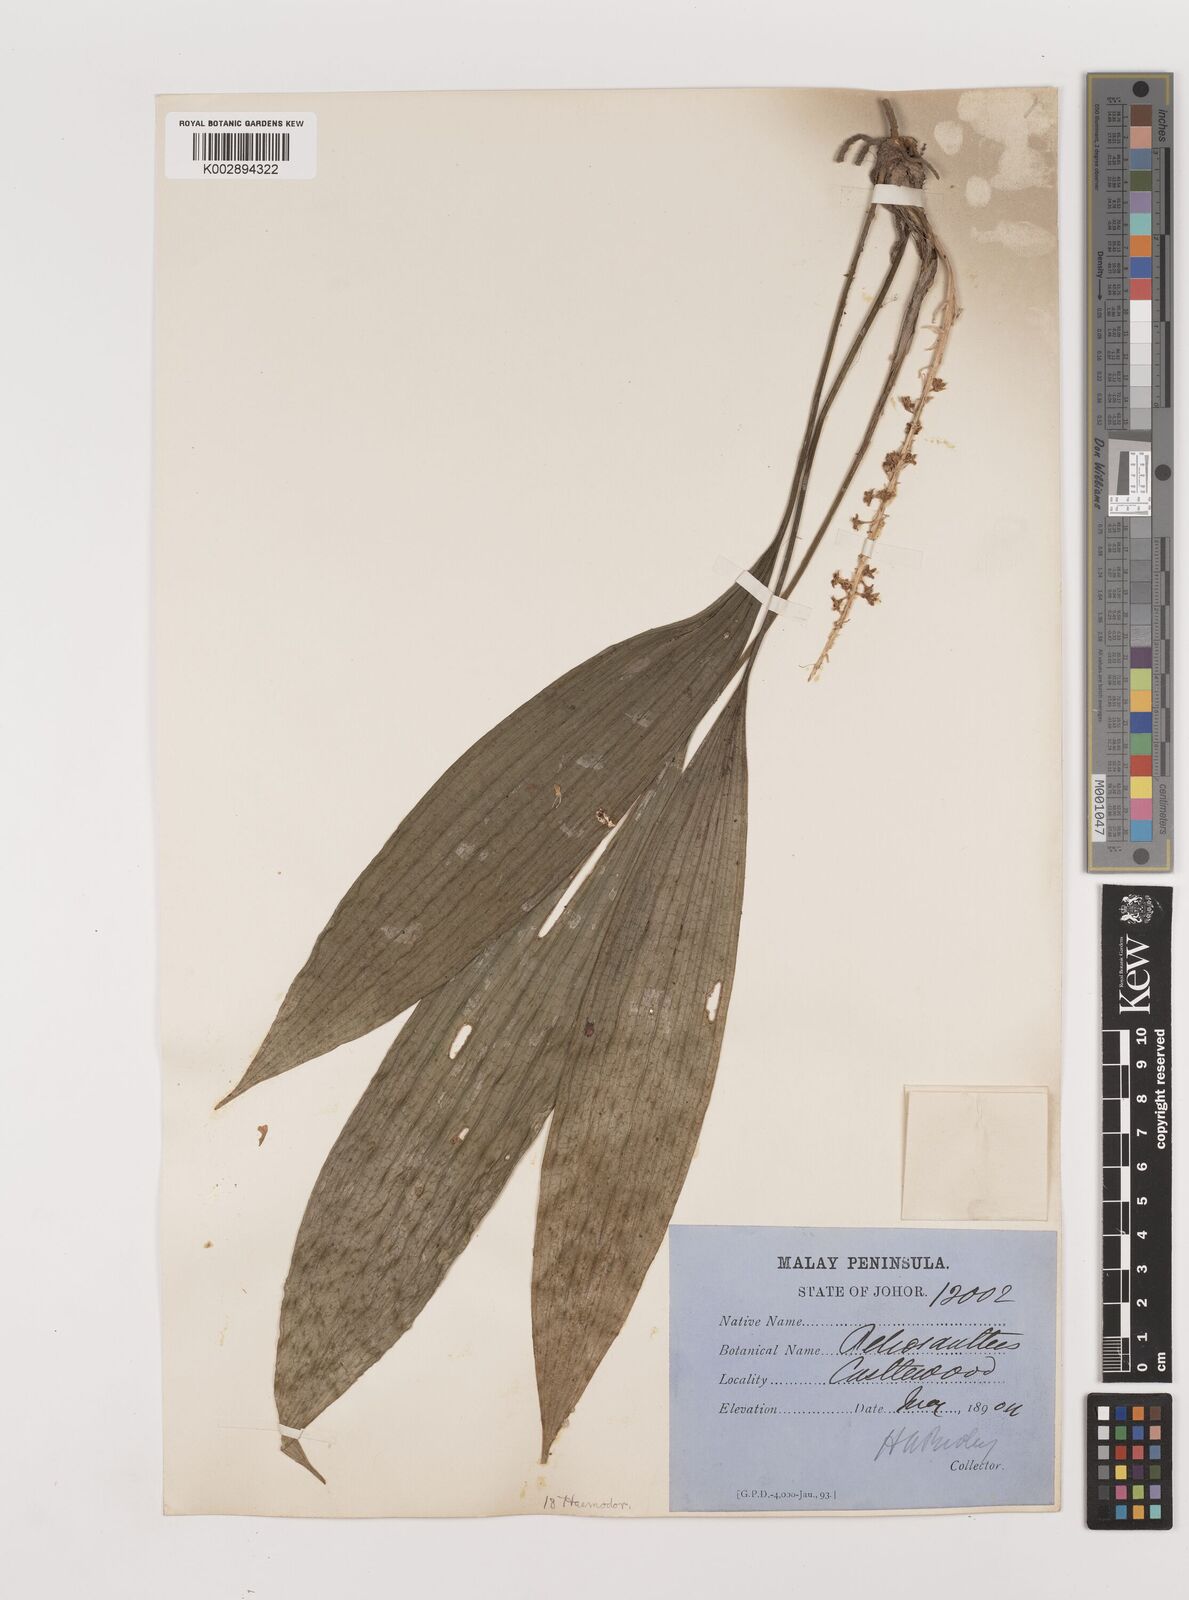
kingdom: Plantae
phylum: Tracheophyta
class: Liliopsida
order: Asparagales
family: Asparagaceae
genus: Peliosanthes
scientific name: Peliosanthes teta
